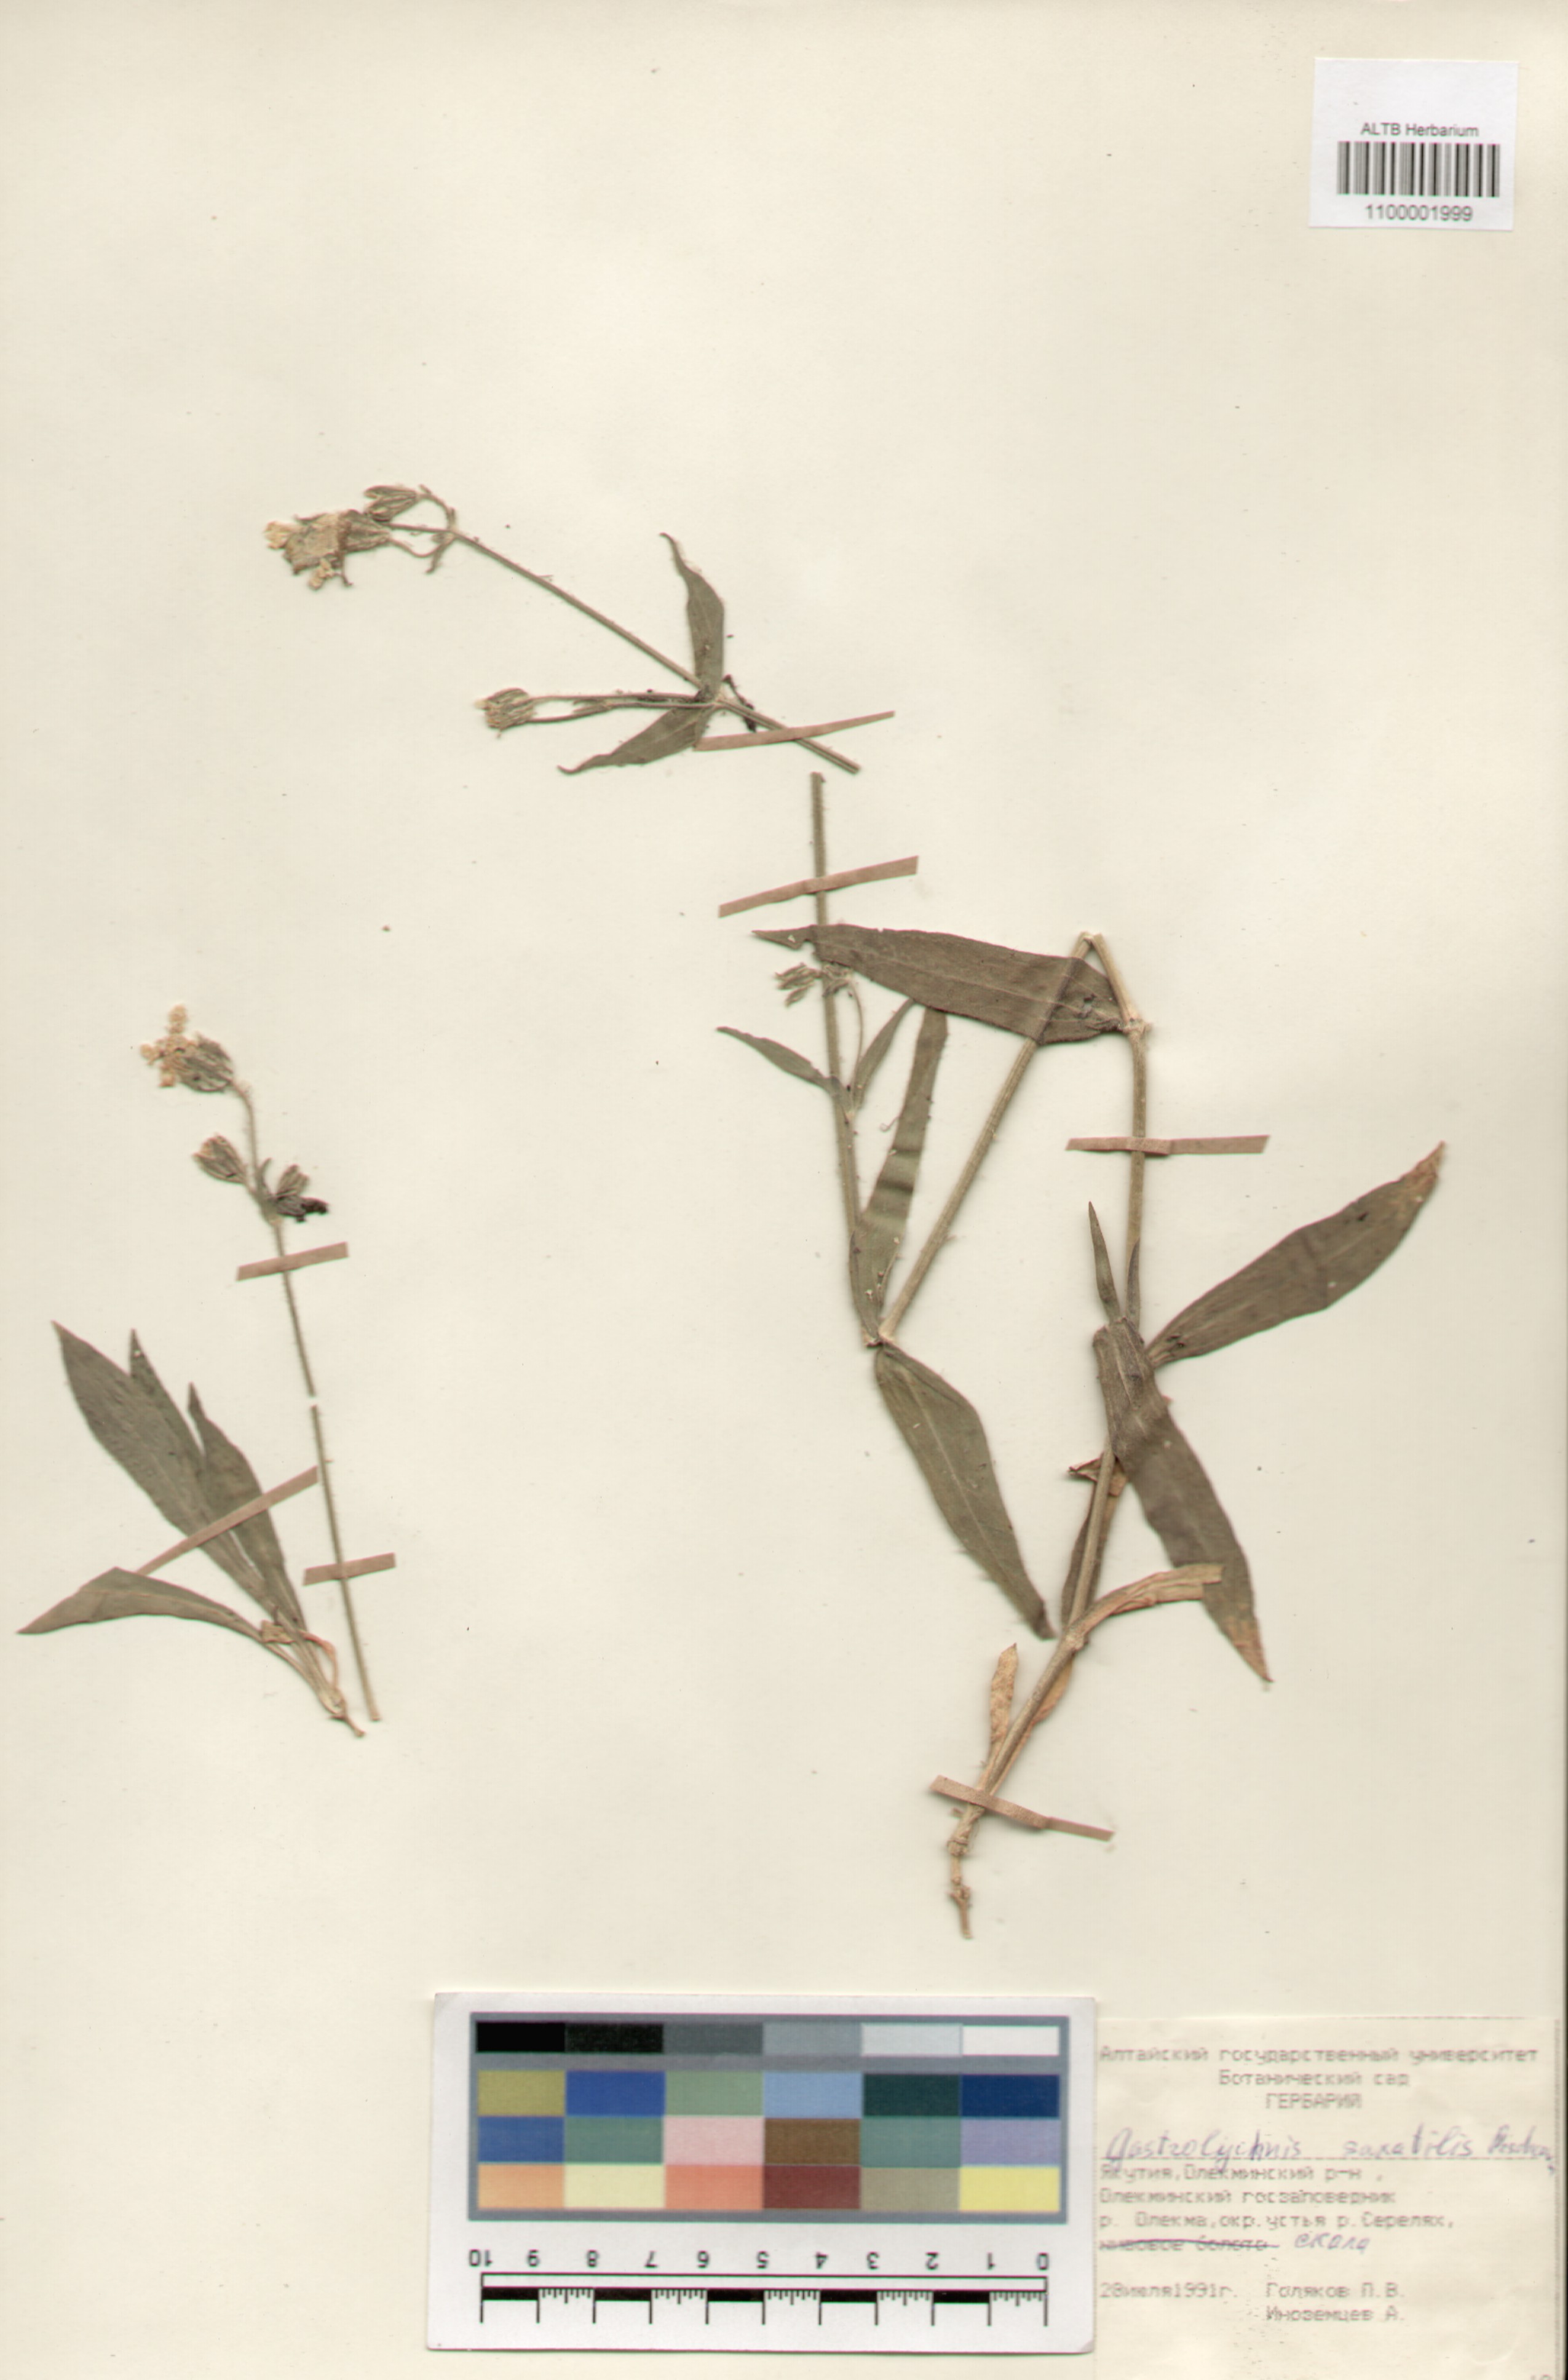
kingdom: Plantae
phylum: Tracheophyta
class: Magnoliopsida
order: Caryophyllales
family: Caryophyllaceae
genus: Silene
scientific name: Silene tolmatchevii
